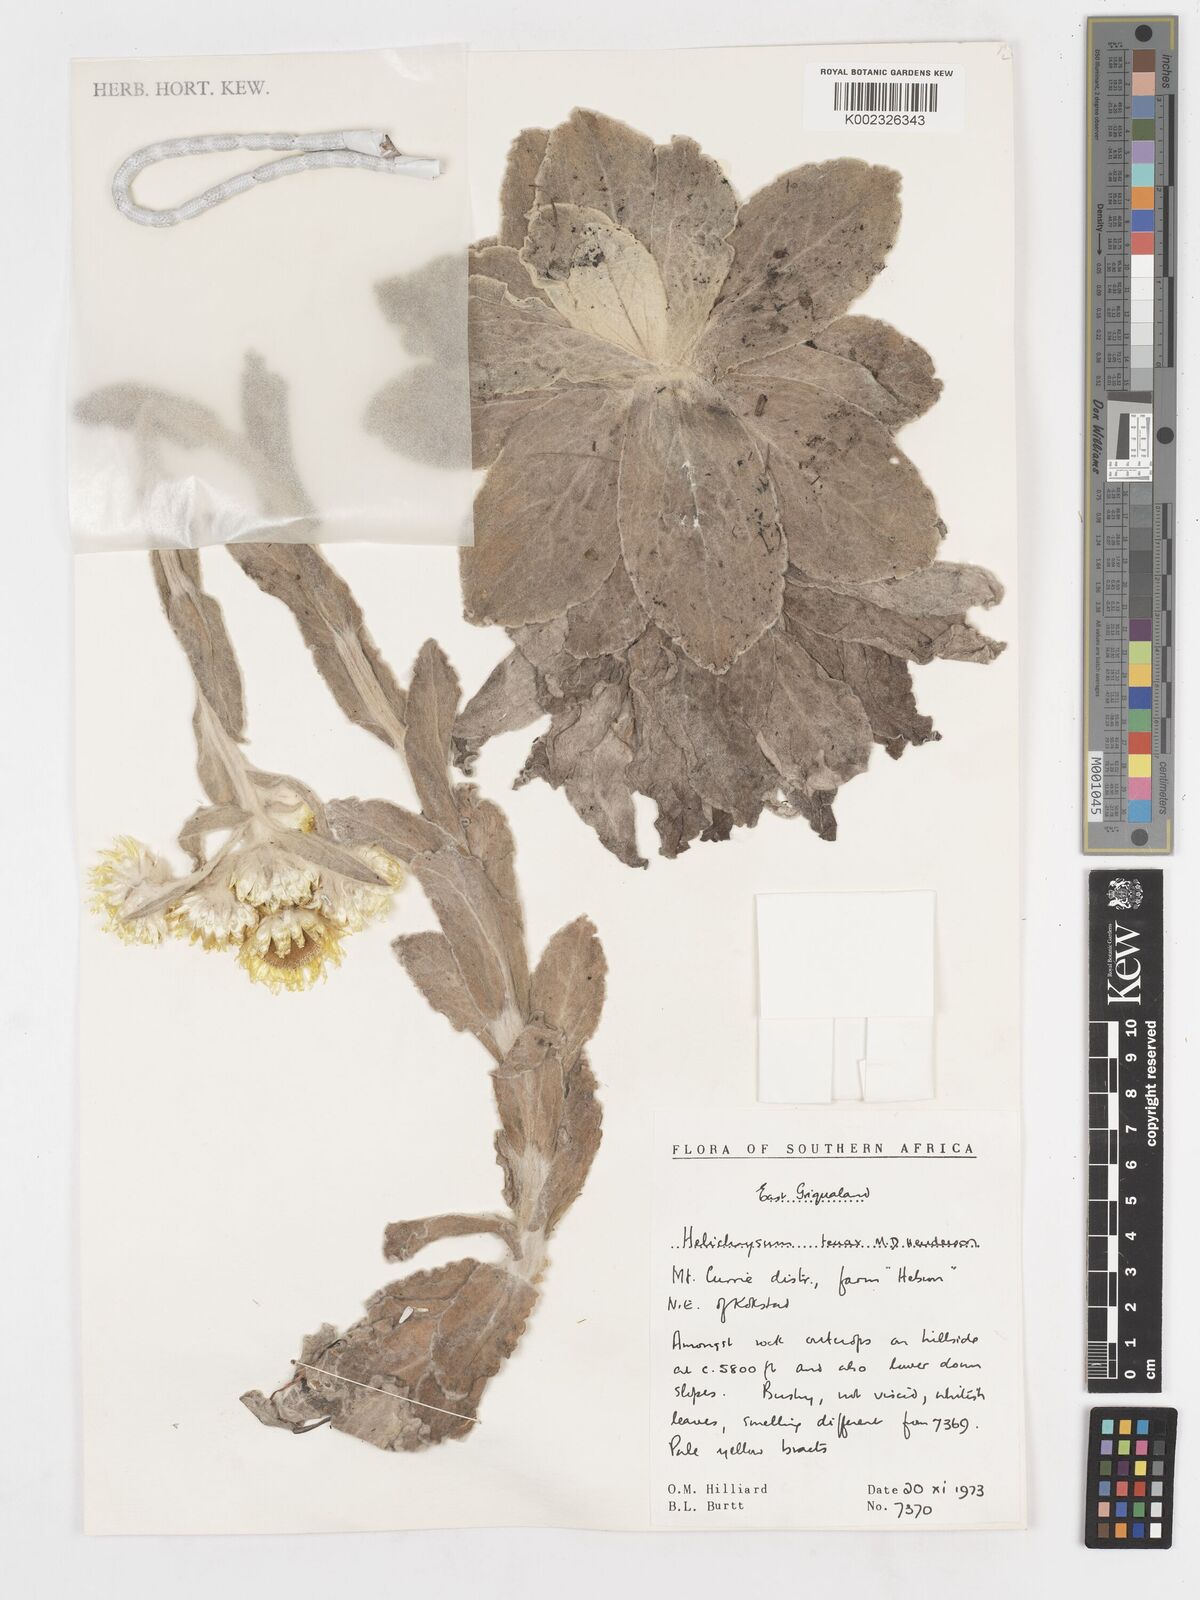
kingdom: Plantae
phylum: Tracheophyta
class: Magnoliopsida
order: Asterales
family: Asteraceae
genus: Helichrysum
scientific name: Helichrysum tenax
